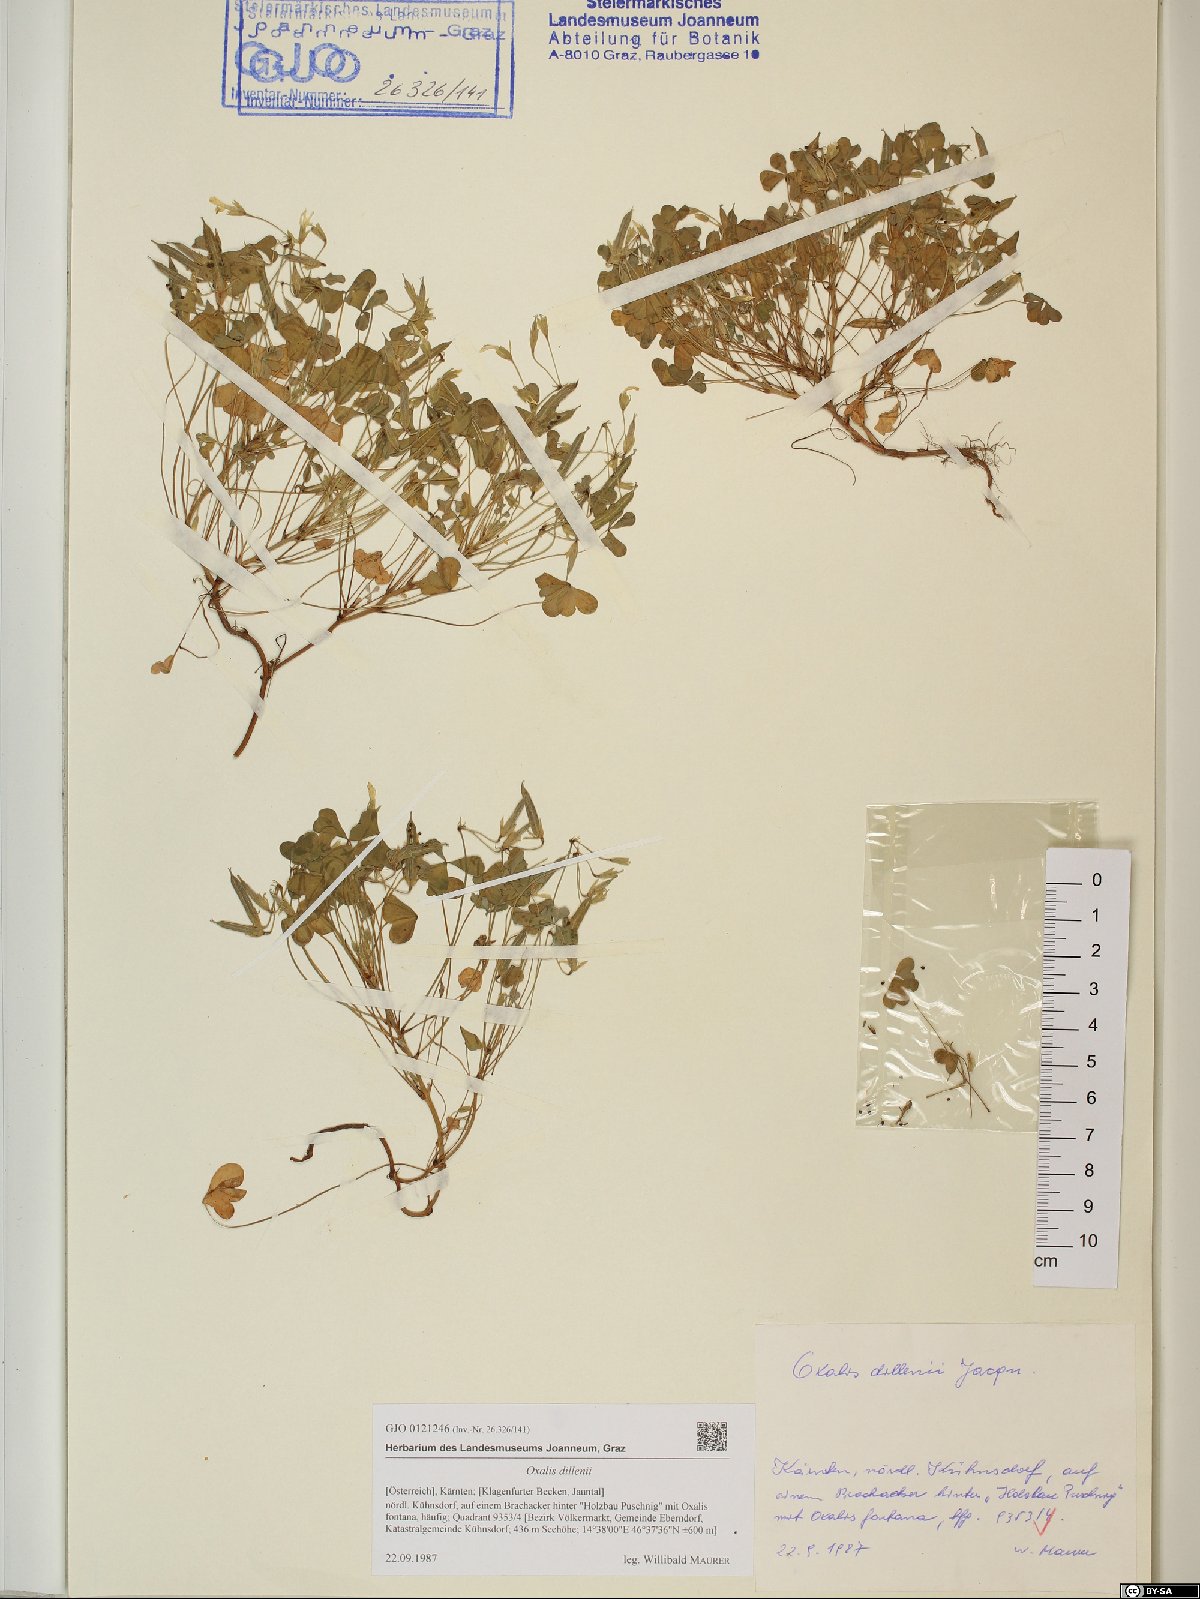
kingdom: Plantae
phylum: Tracheophyta
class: Magnoliopsida
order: Oxalidales
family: Oxalidaceae
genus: Oxalis
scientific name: Oxalis dillenii
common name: Sussex yellow-sorrel
